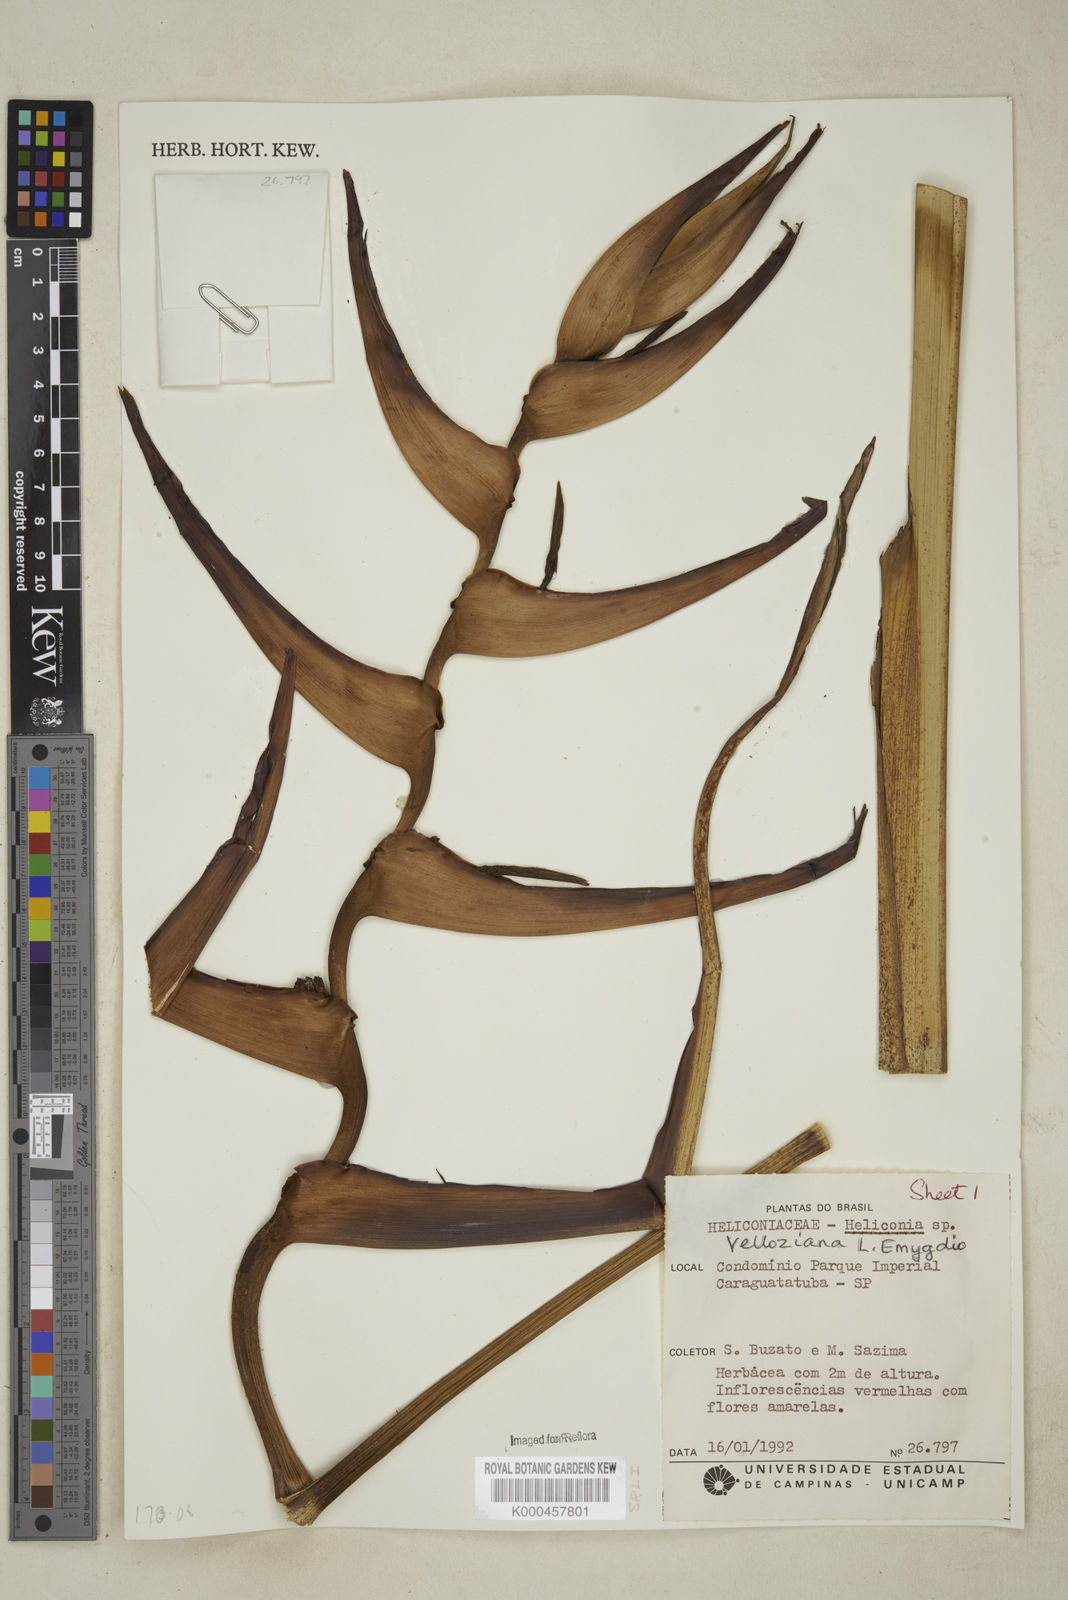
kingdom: Plantae
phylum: Tracheophyta
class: Liliopsida
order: Zingiberales
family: Heliconiaceae
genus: Heliconia
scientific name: Heliconia farinosa
